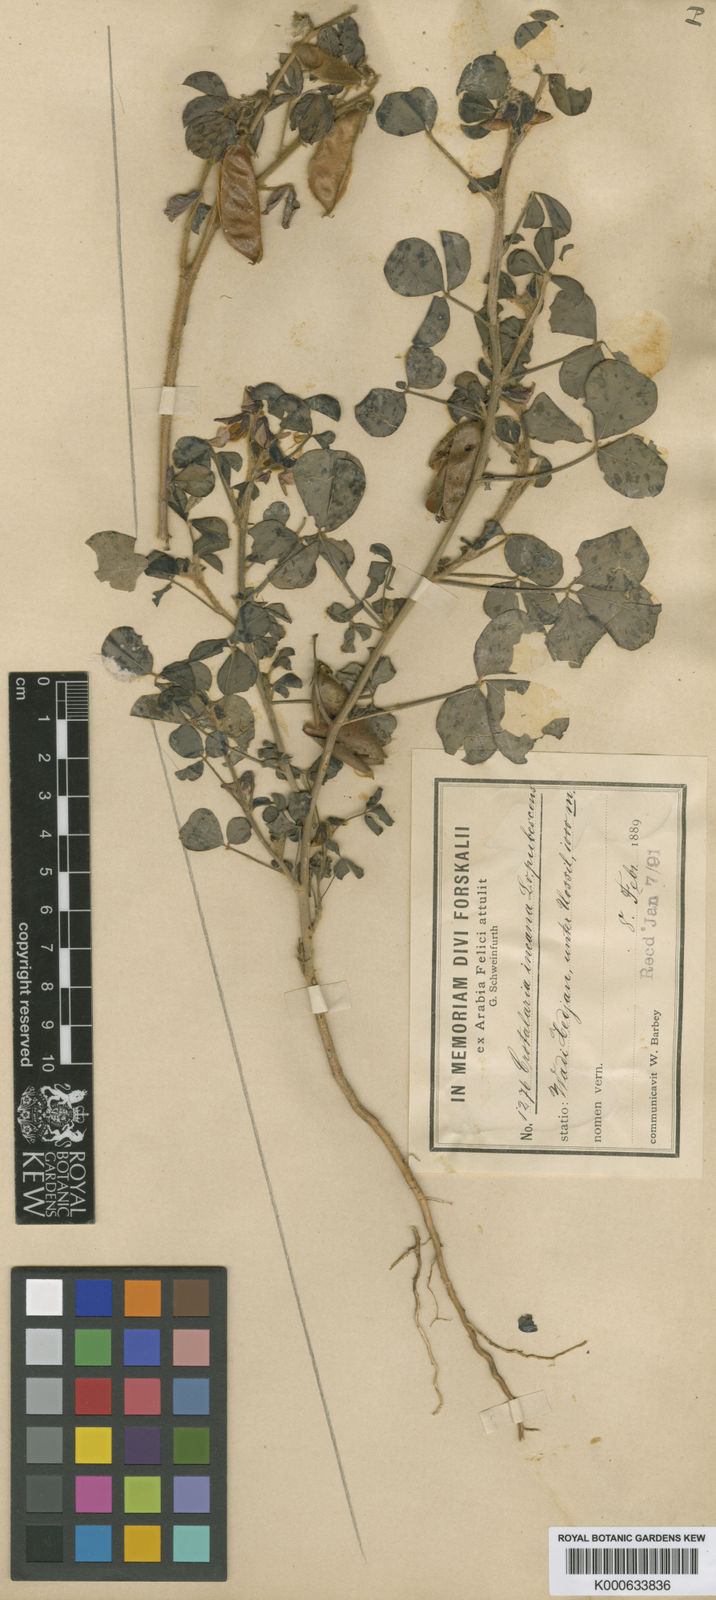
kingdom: Plantae
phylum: Tracheophyta
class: Magnoliopsida
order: Fabales
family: Fabaceae
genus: Crotalaria
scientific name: Crotalaria incana
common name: Shakeshake
